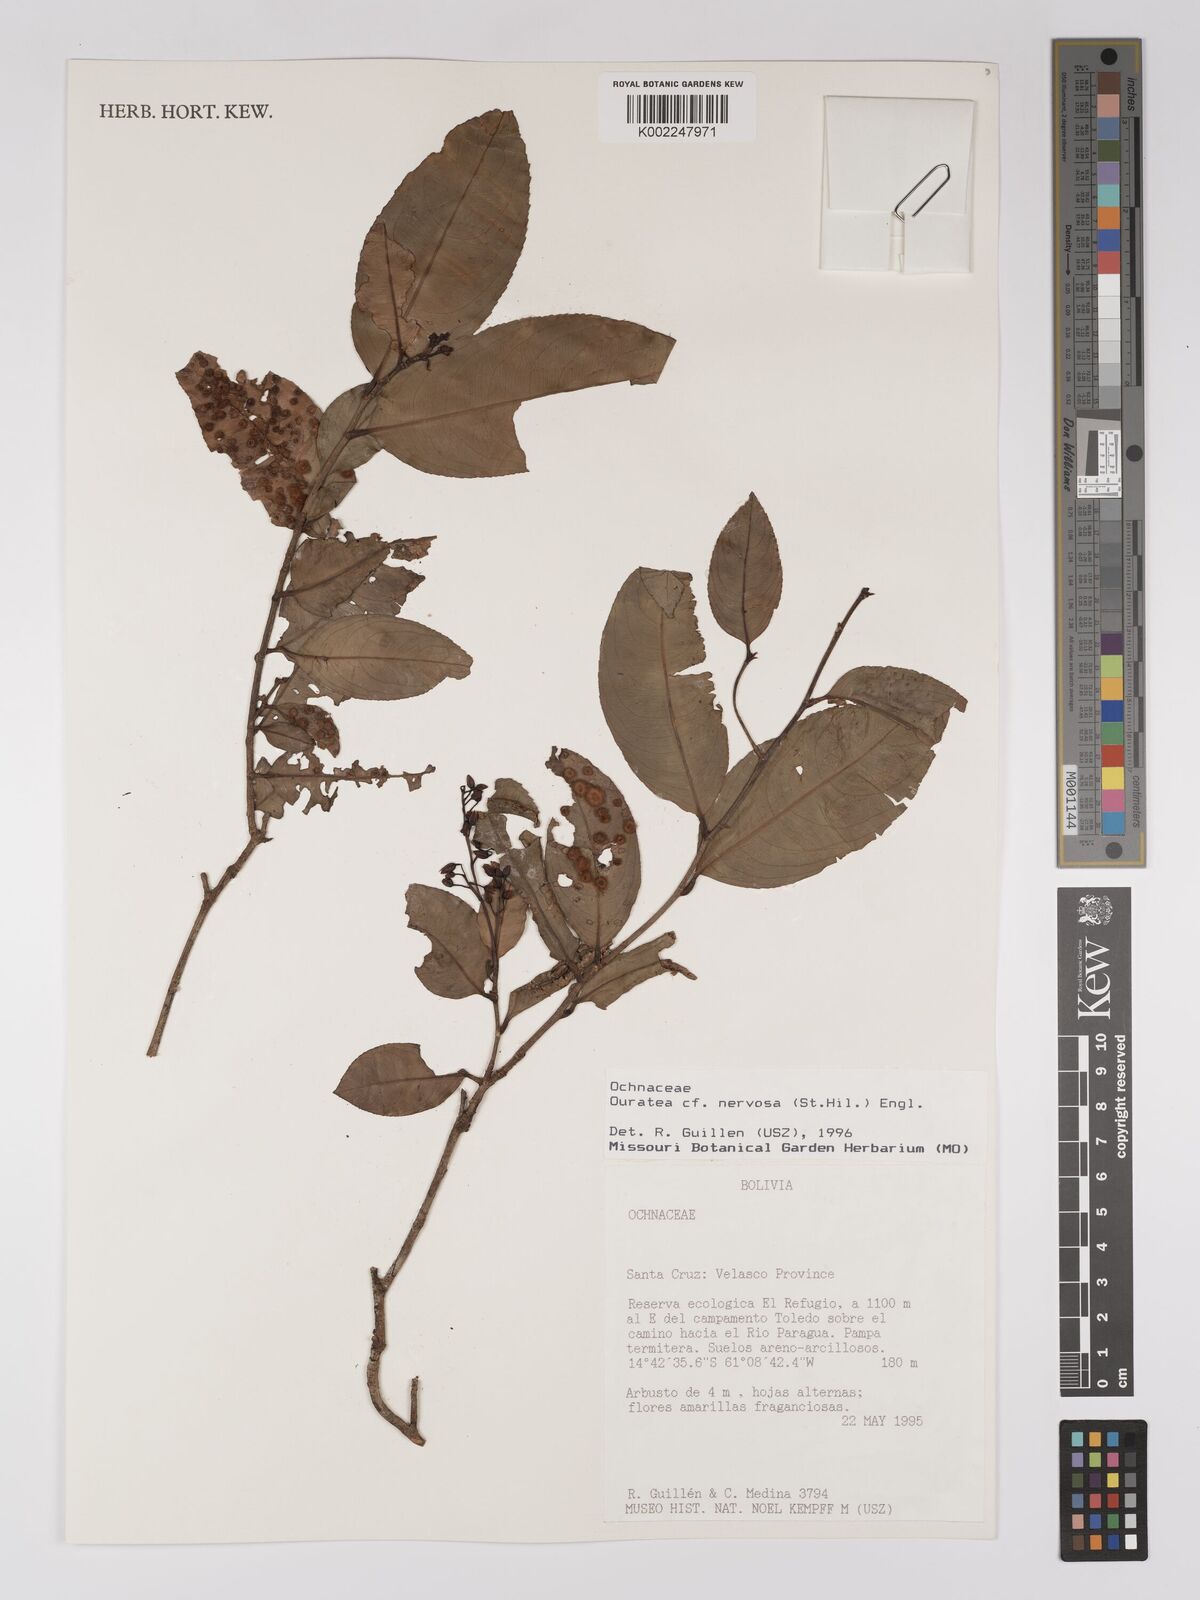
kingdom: Plantae
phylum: Tracheophyta
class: Magnoliopsida
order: Malpighiales
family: Ochnaceae
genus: Ouratea
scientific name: Ouratea nervosa
